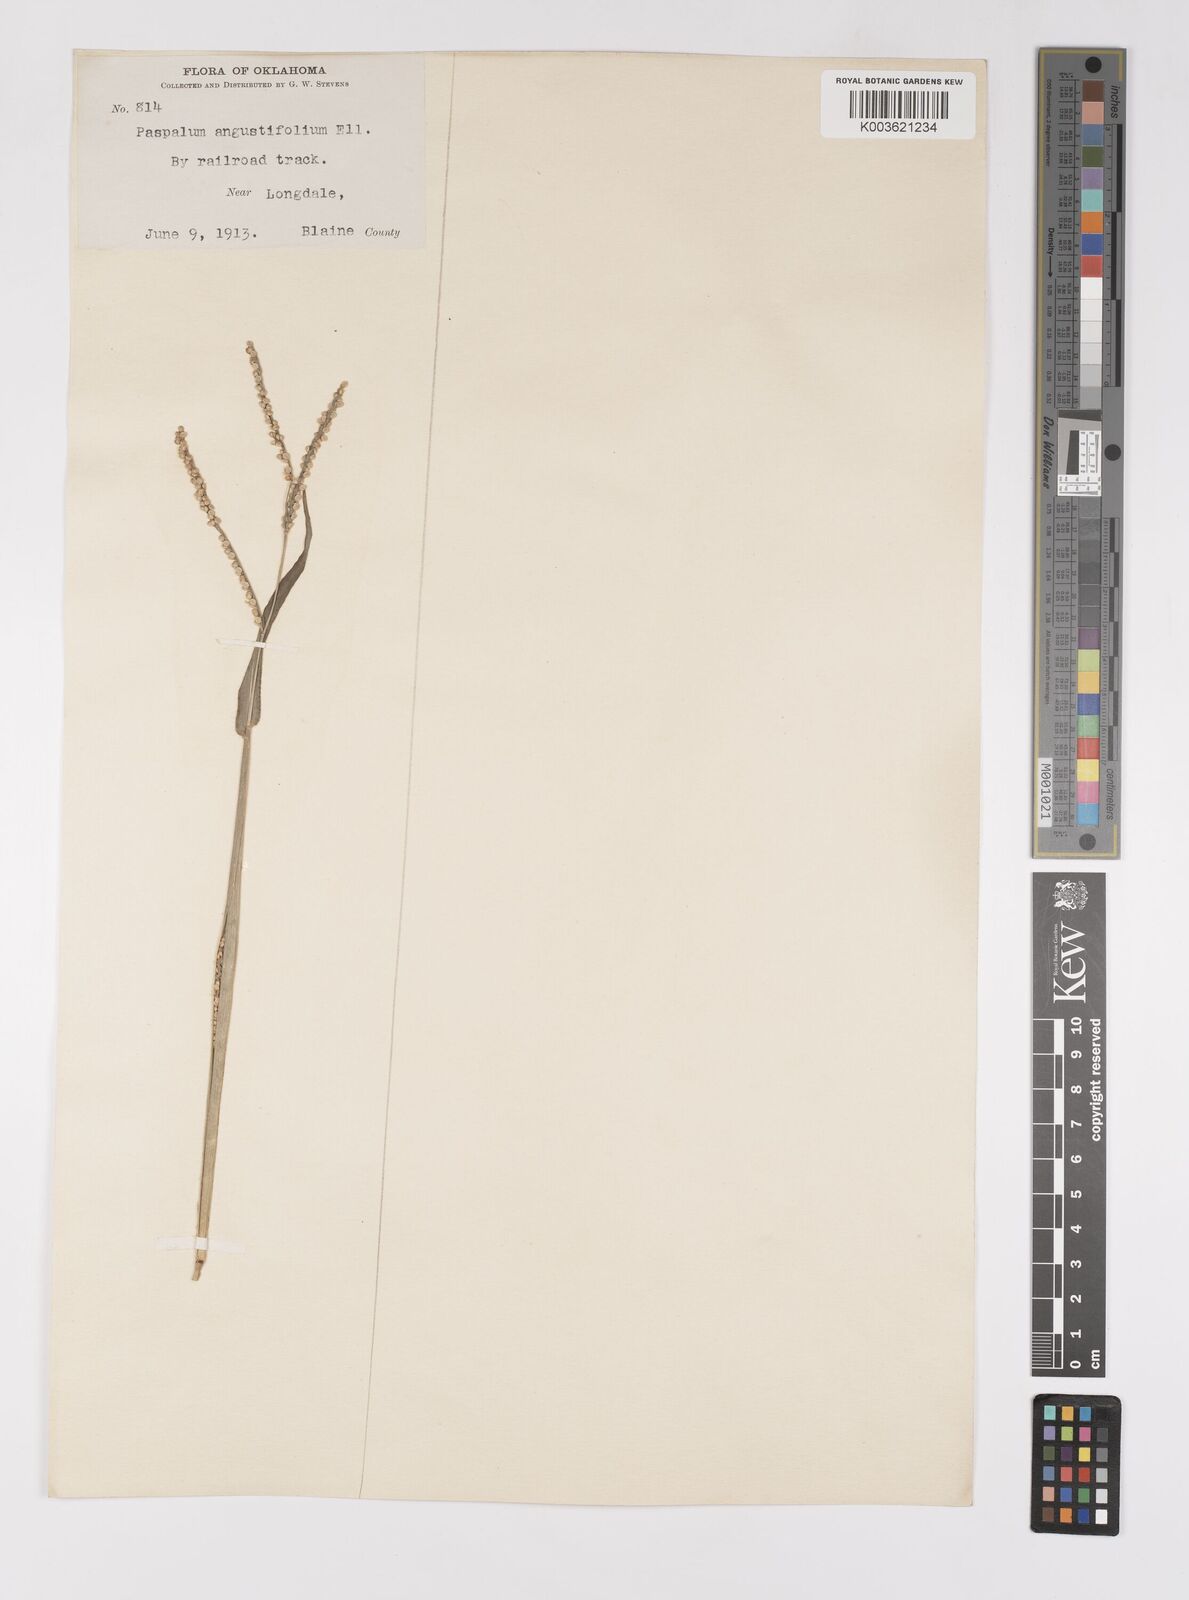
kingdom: Plantae
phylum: Tracheophyta
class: Liliopsida
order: Poales
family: Poaceae
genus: Paspalum
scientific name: Paspalum setaceum
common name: Slender paspalum
